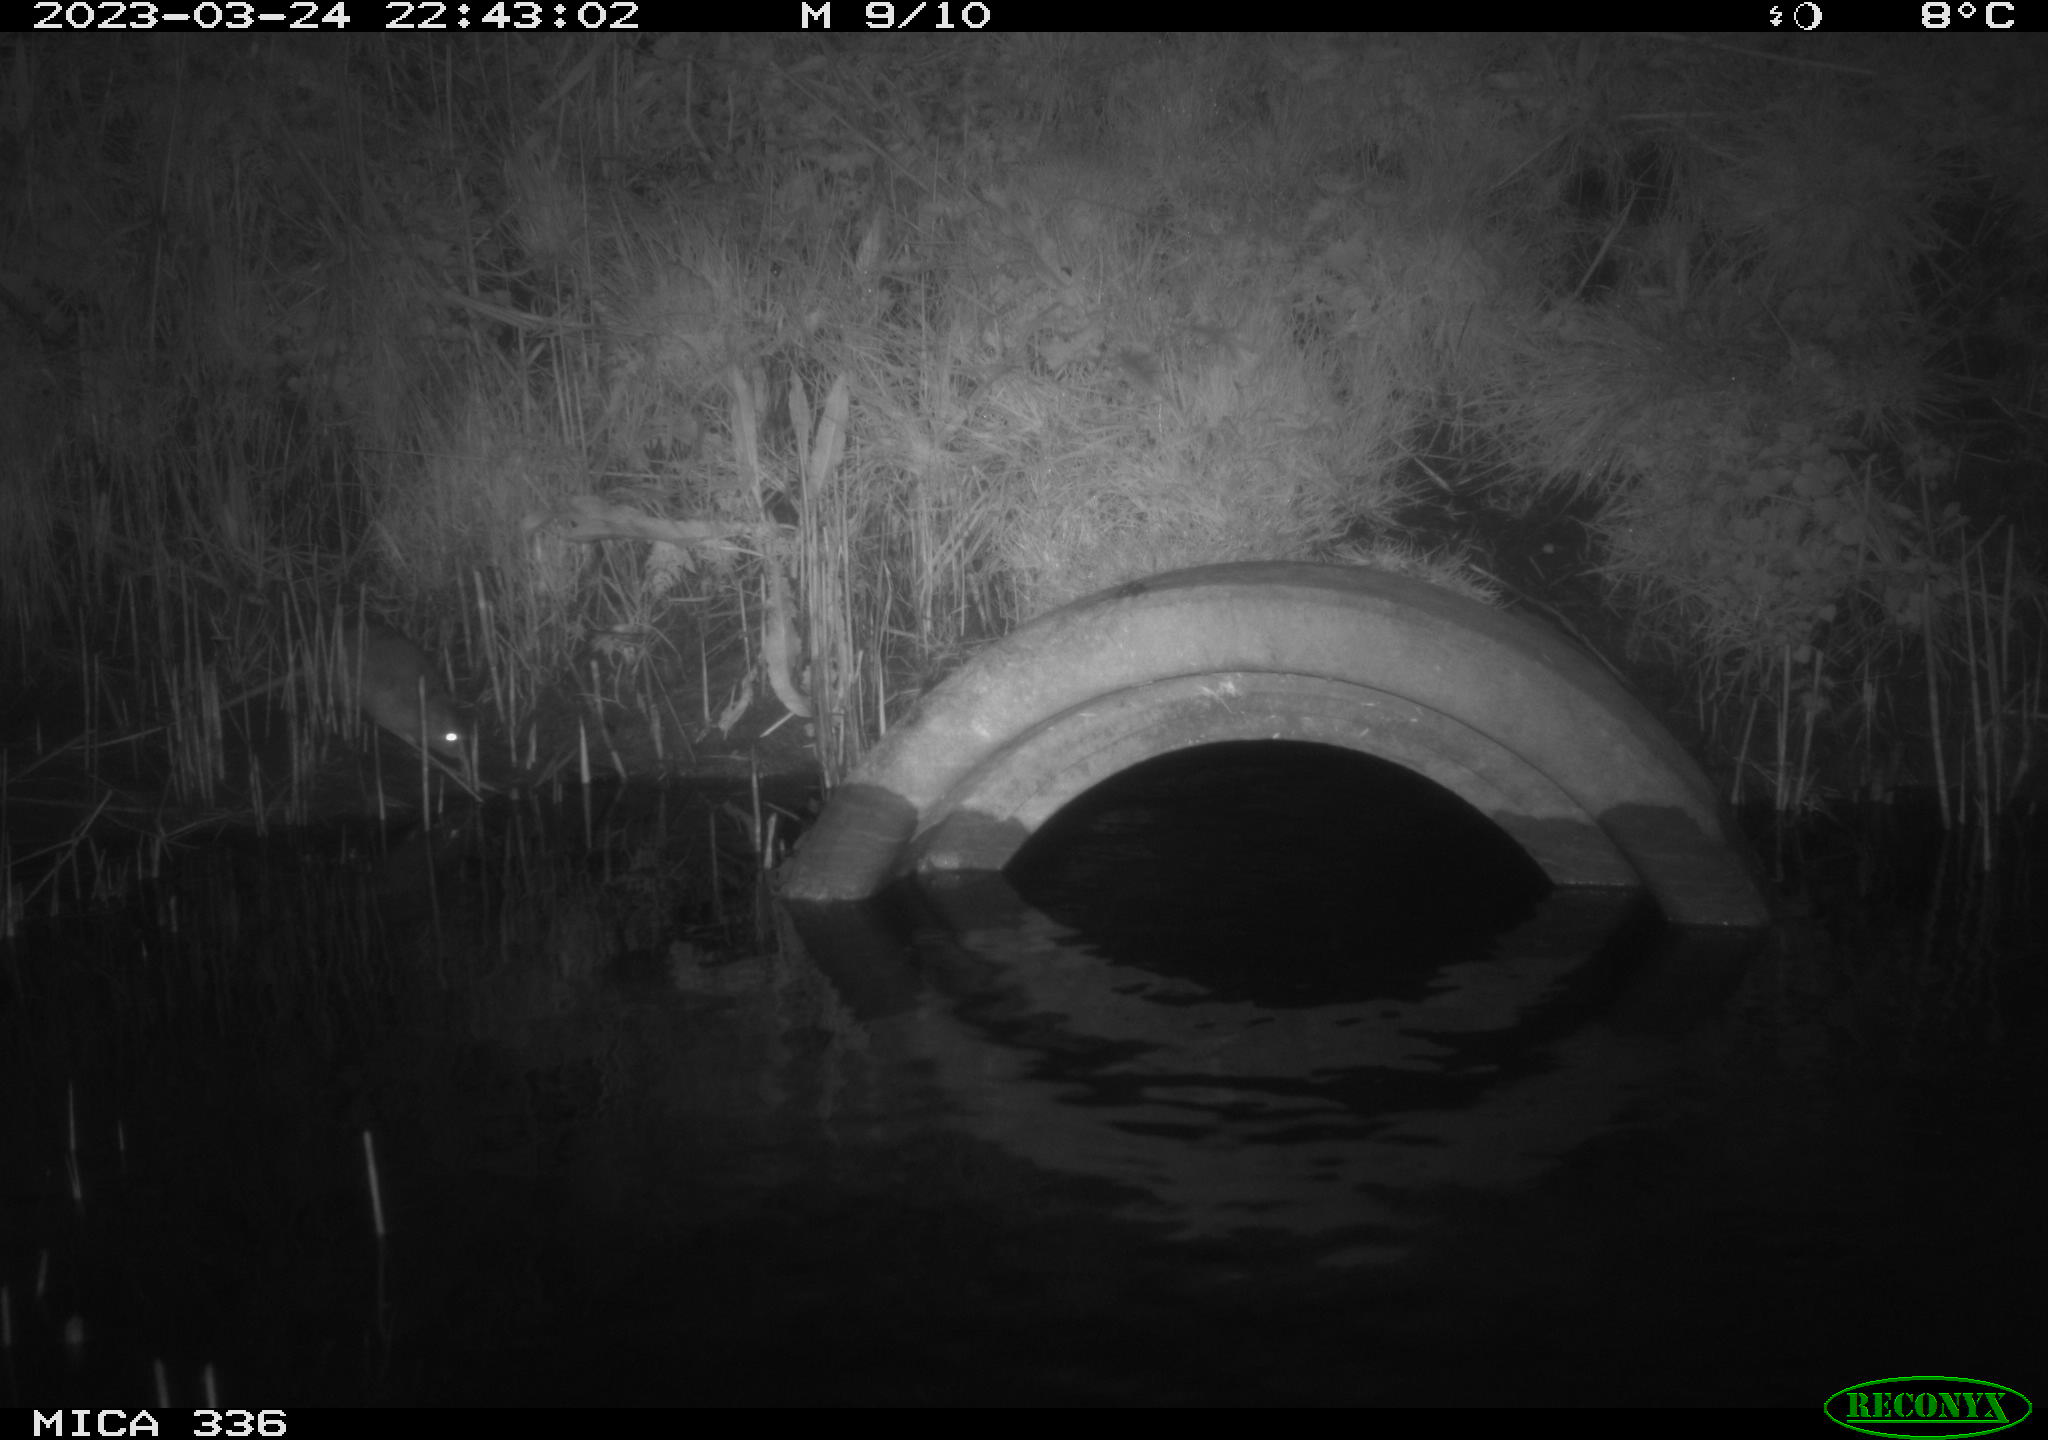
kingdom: Animalia
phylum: Chordata
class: Mammalia
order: Rodentia
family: Muridae
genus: Rattus
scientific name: Rattus norvegicus
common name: Brown rat
